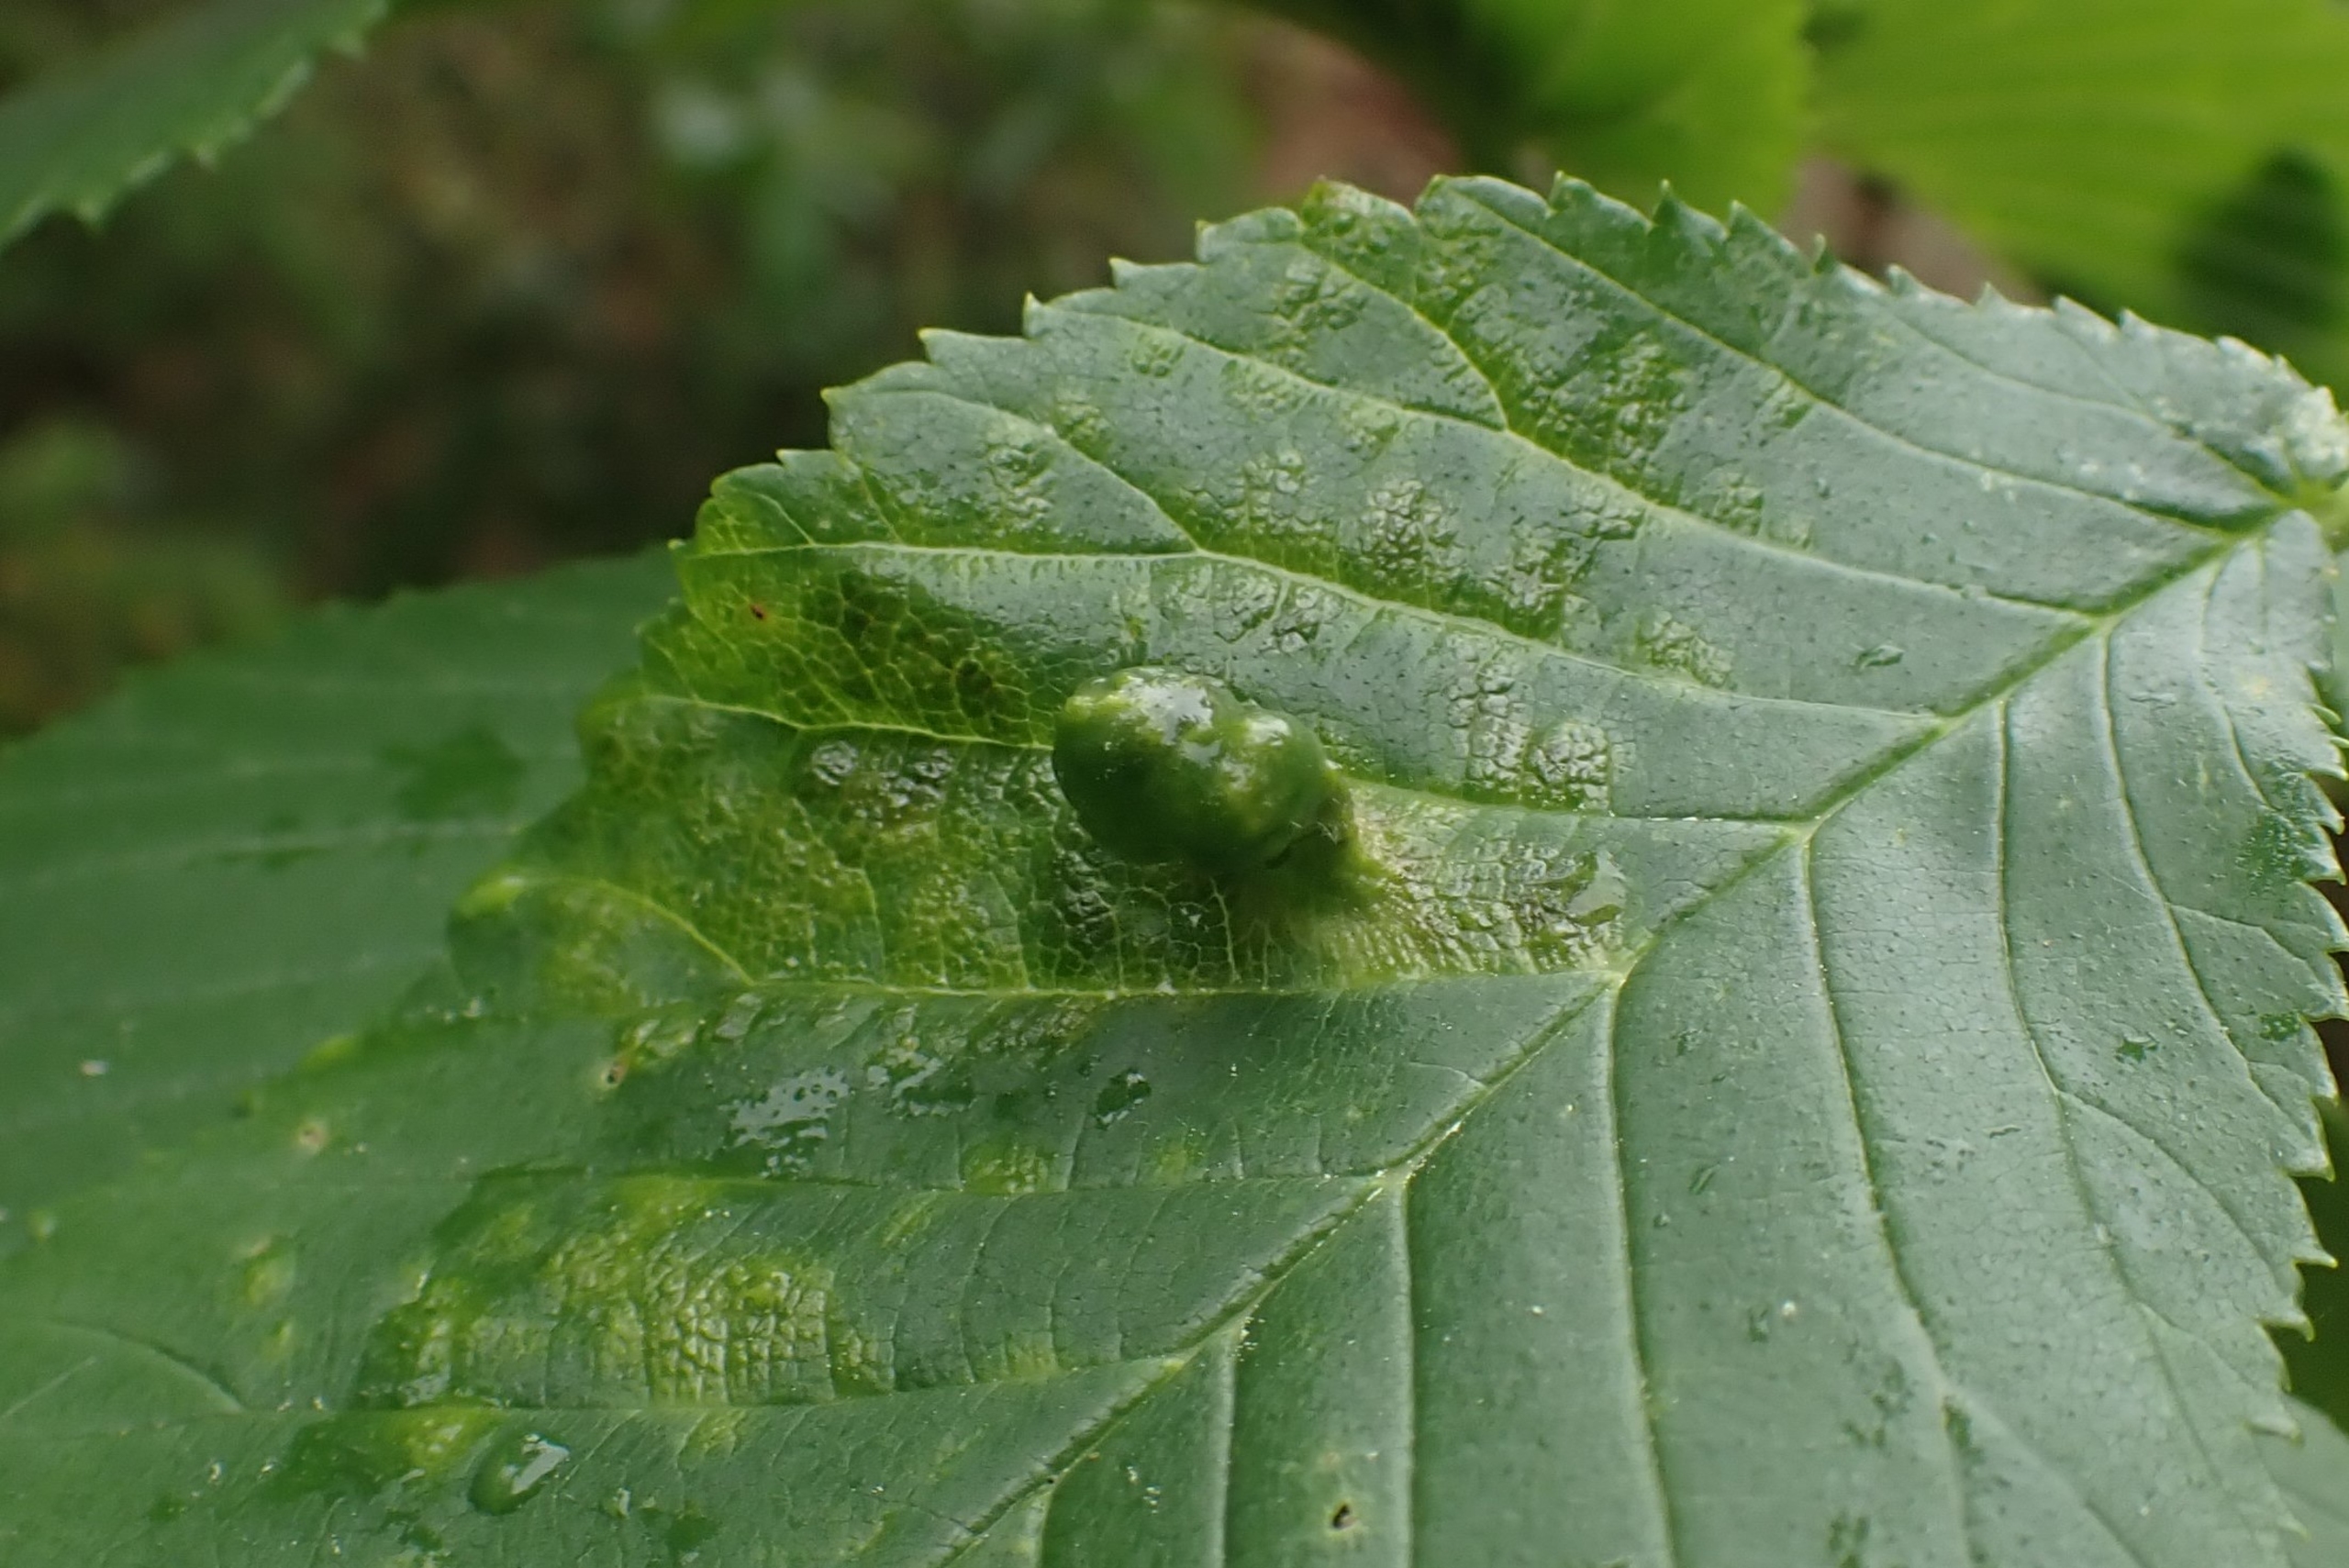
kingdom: Animalia
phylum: Arthropoda
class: Insecta
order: Hemiptera
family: Aphididae
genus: Tetraneura
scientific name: Tetraneura ulmi
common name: Elmegallelus
